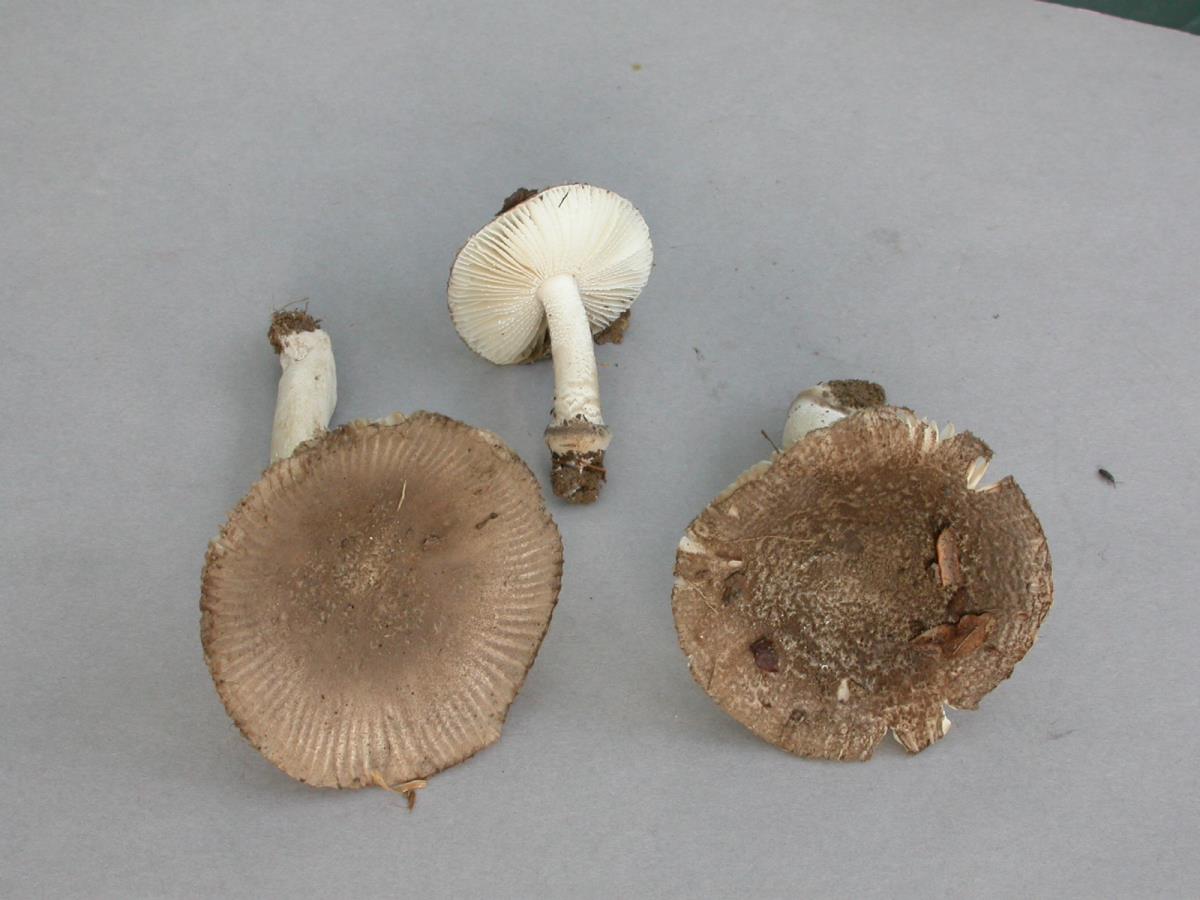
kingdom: Fungi
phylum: Basidiomycota
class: Agaricomycetes
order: Agaricales
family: Amanitaceae
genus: Amanita
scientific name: Amanita nehuta
